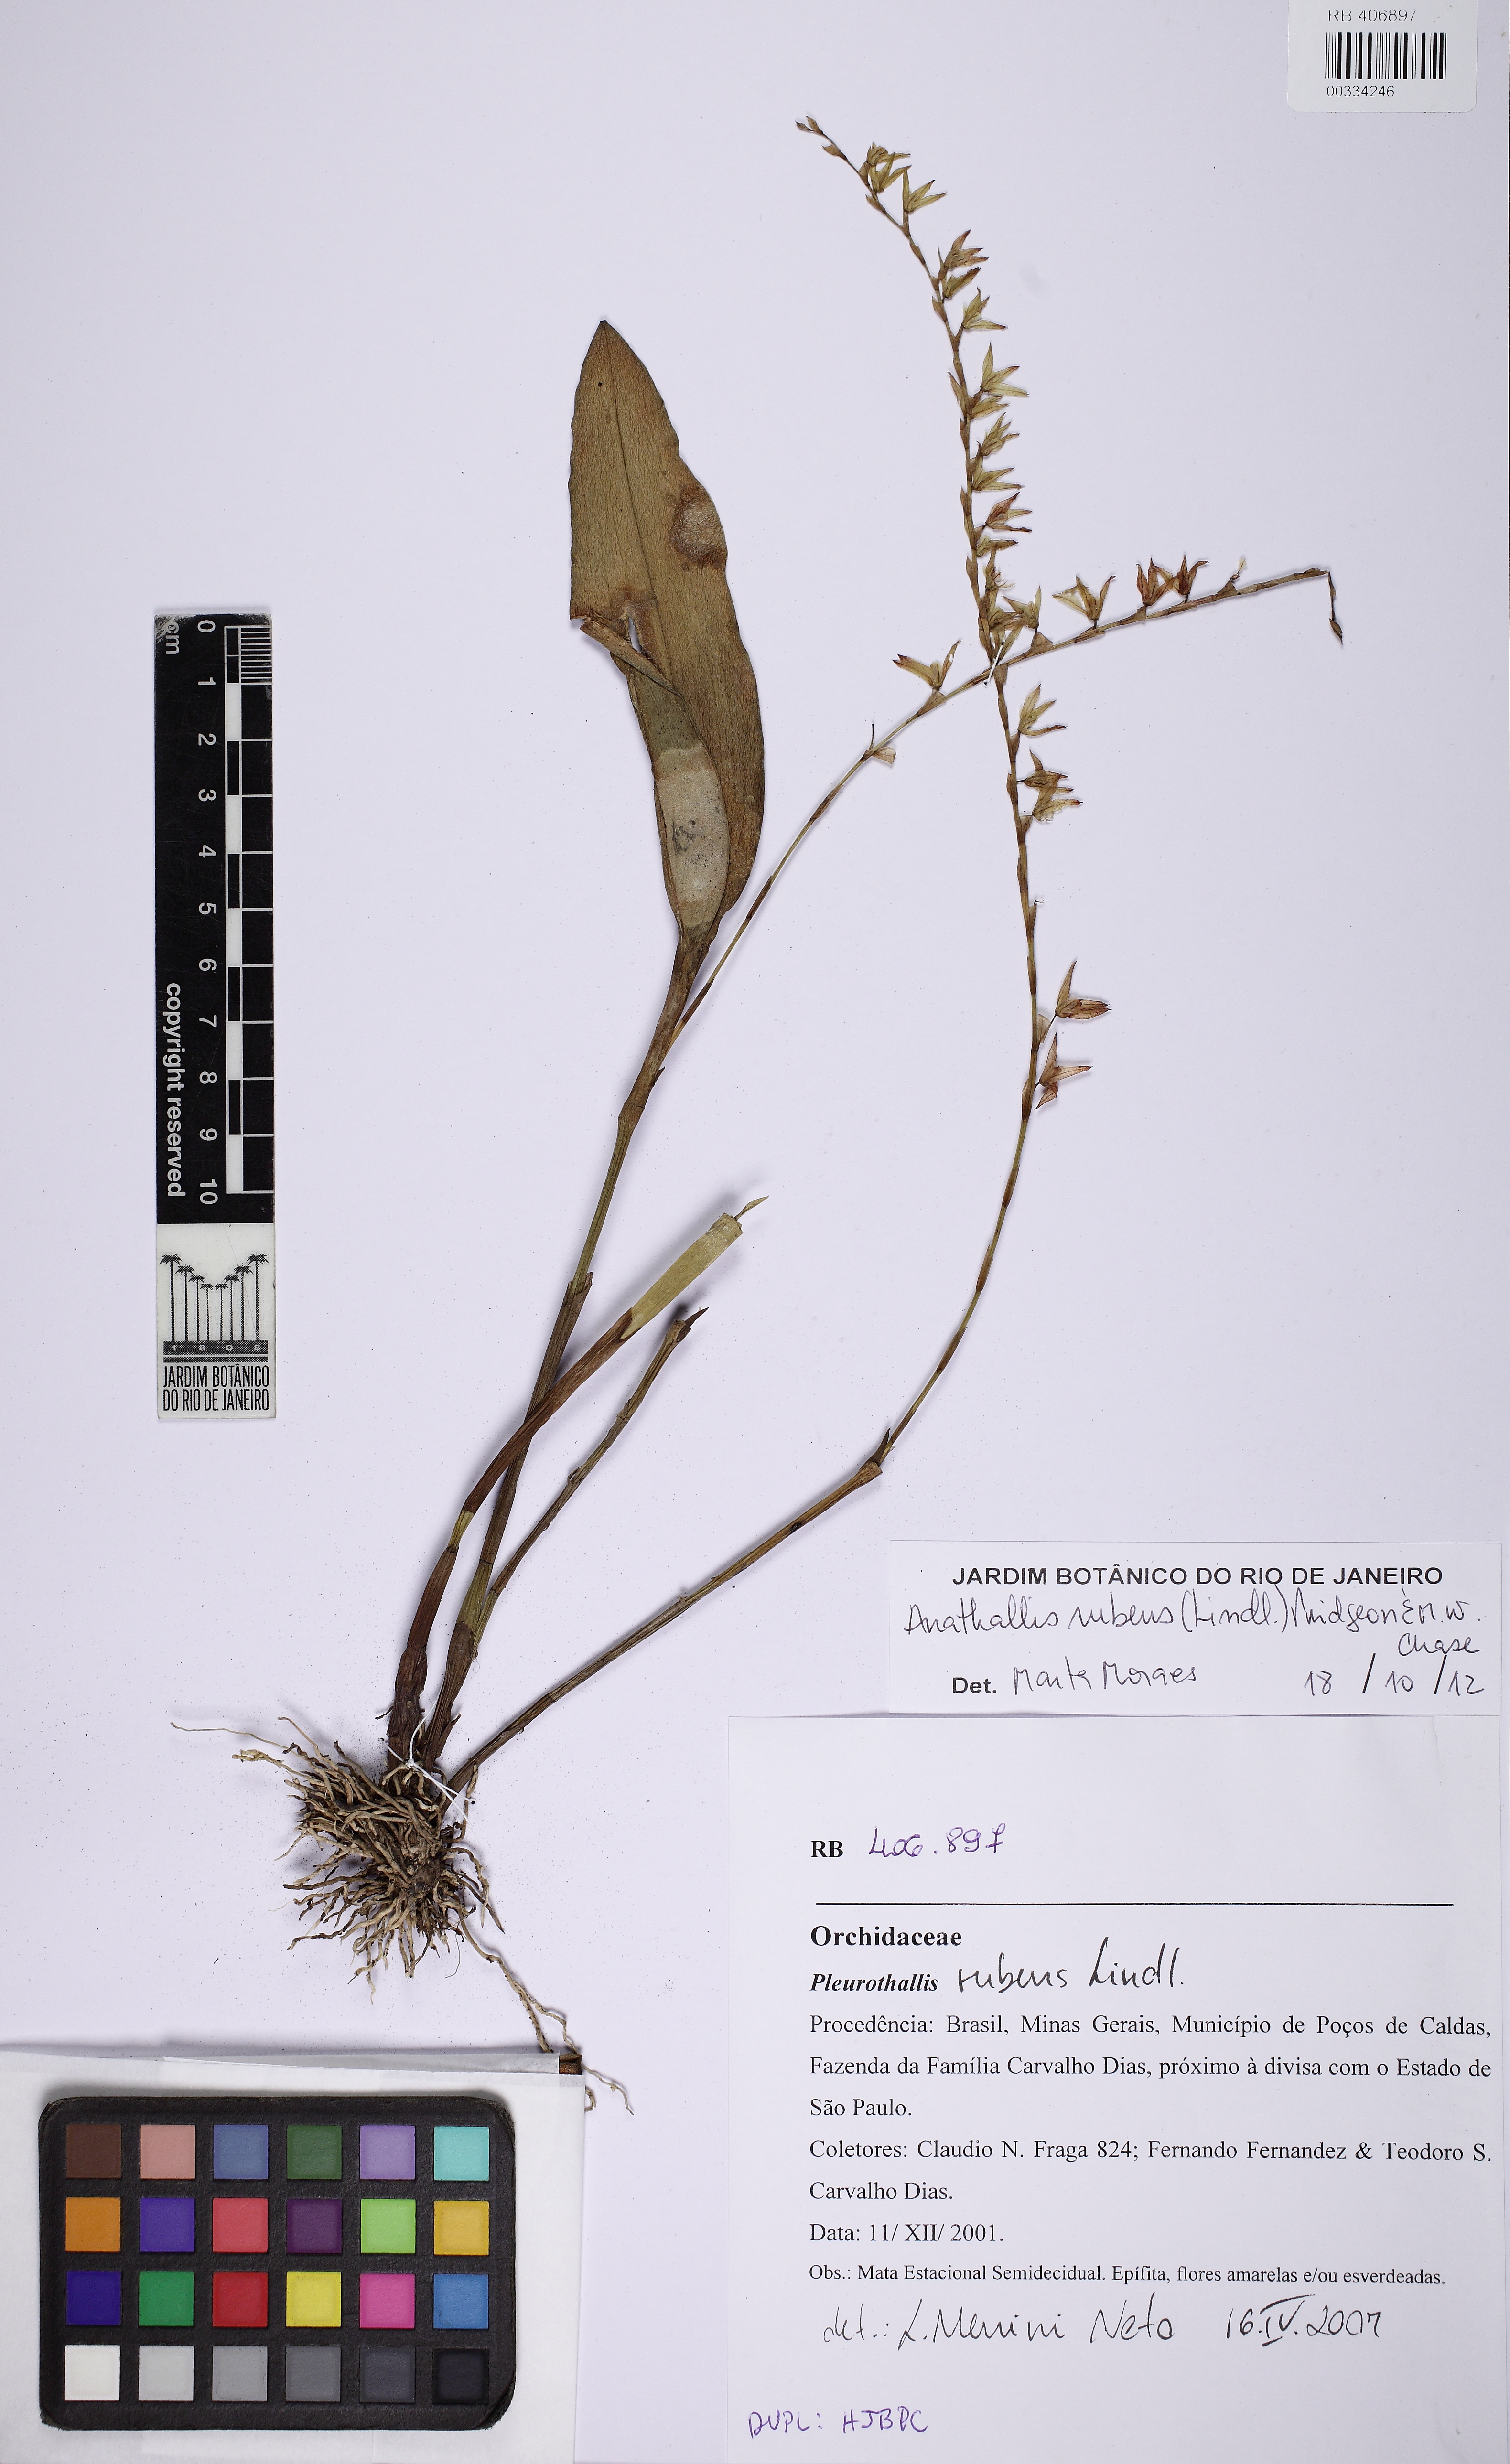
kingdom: Plantae
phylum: Tracheophyta
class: Liliopsida
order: Asparagales
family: Orchidaceae
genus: Stelis
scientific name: Stelis montserratii
